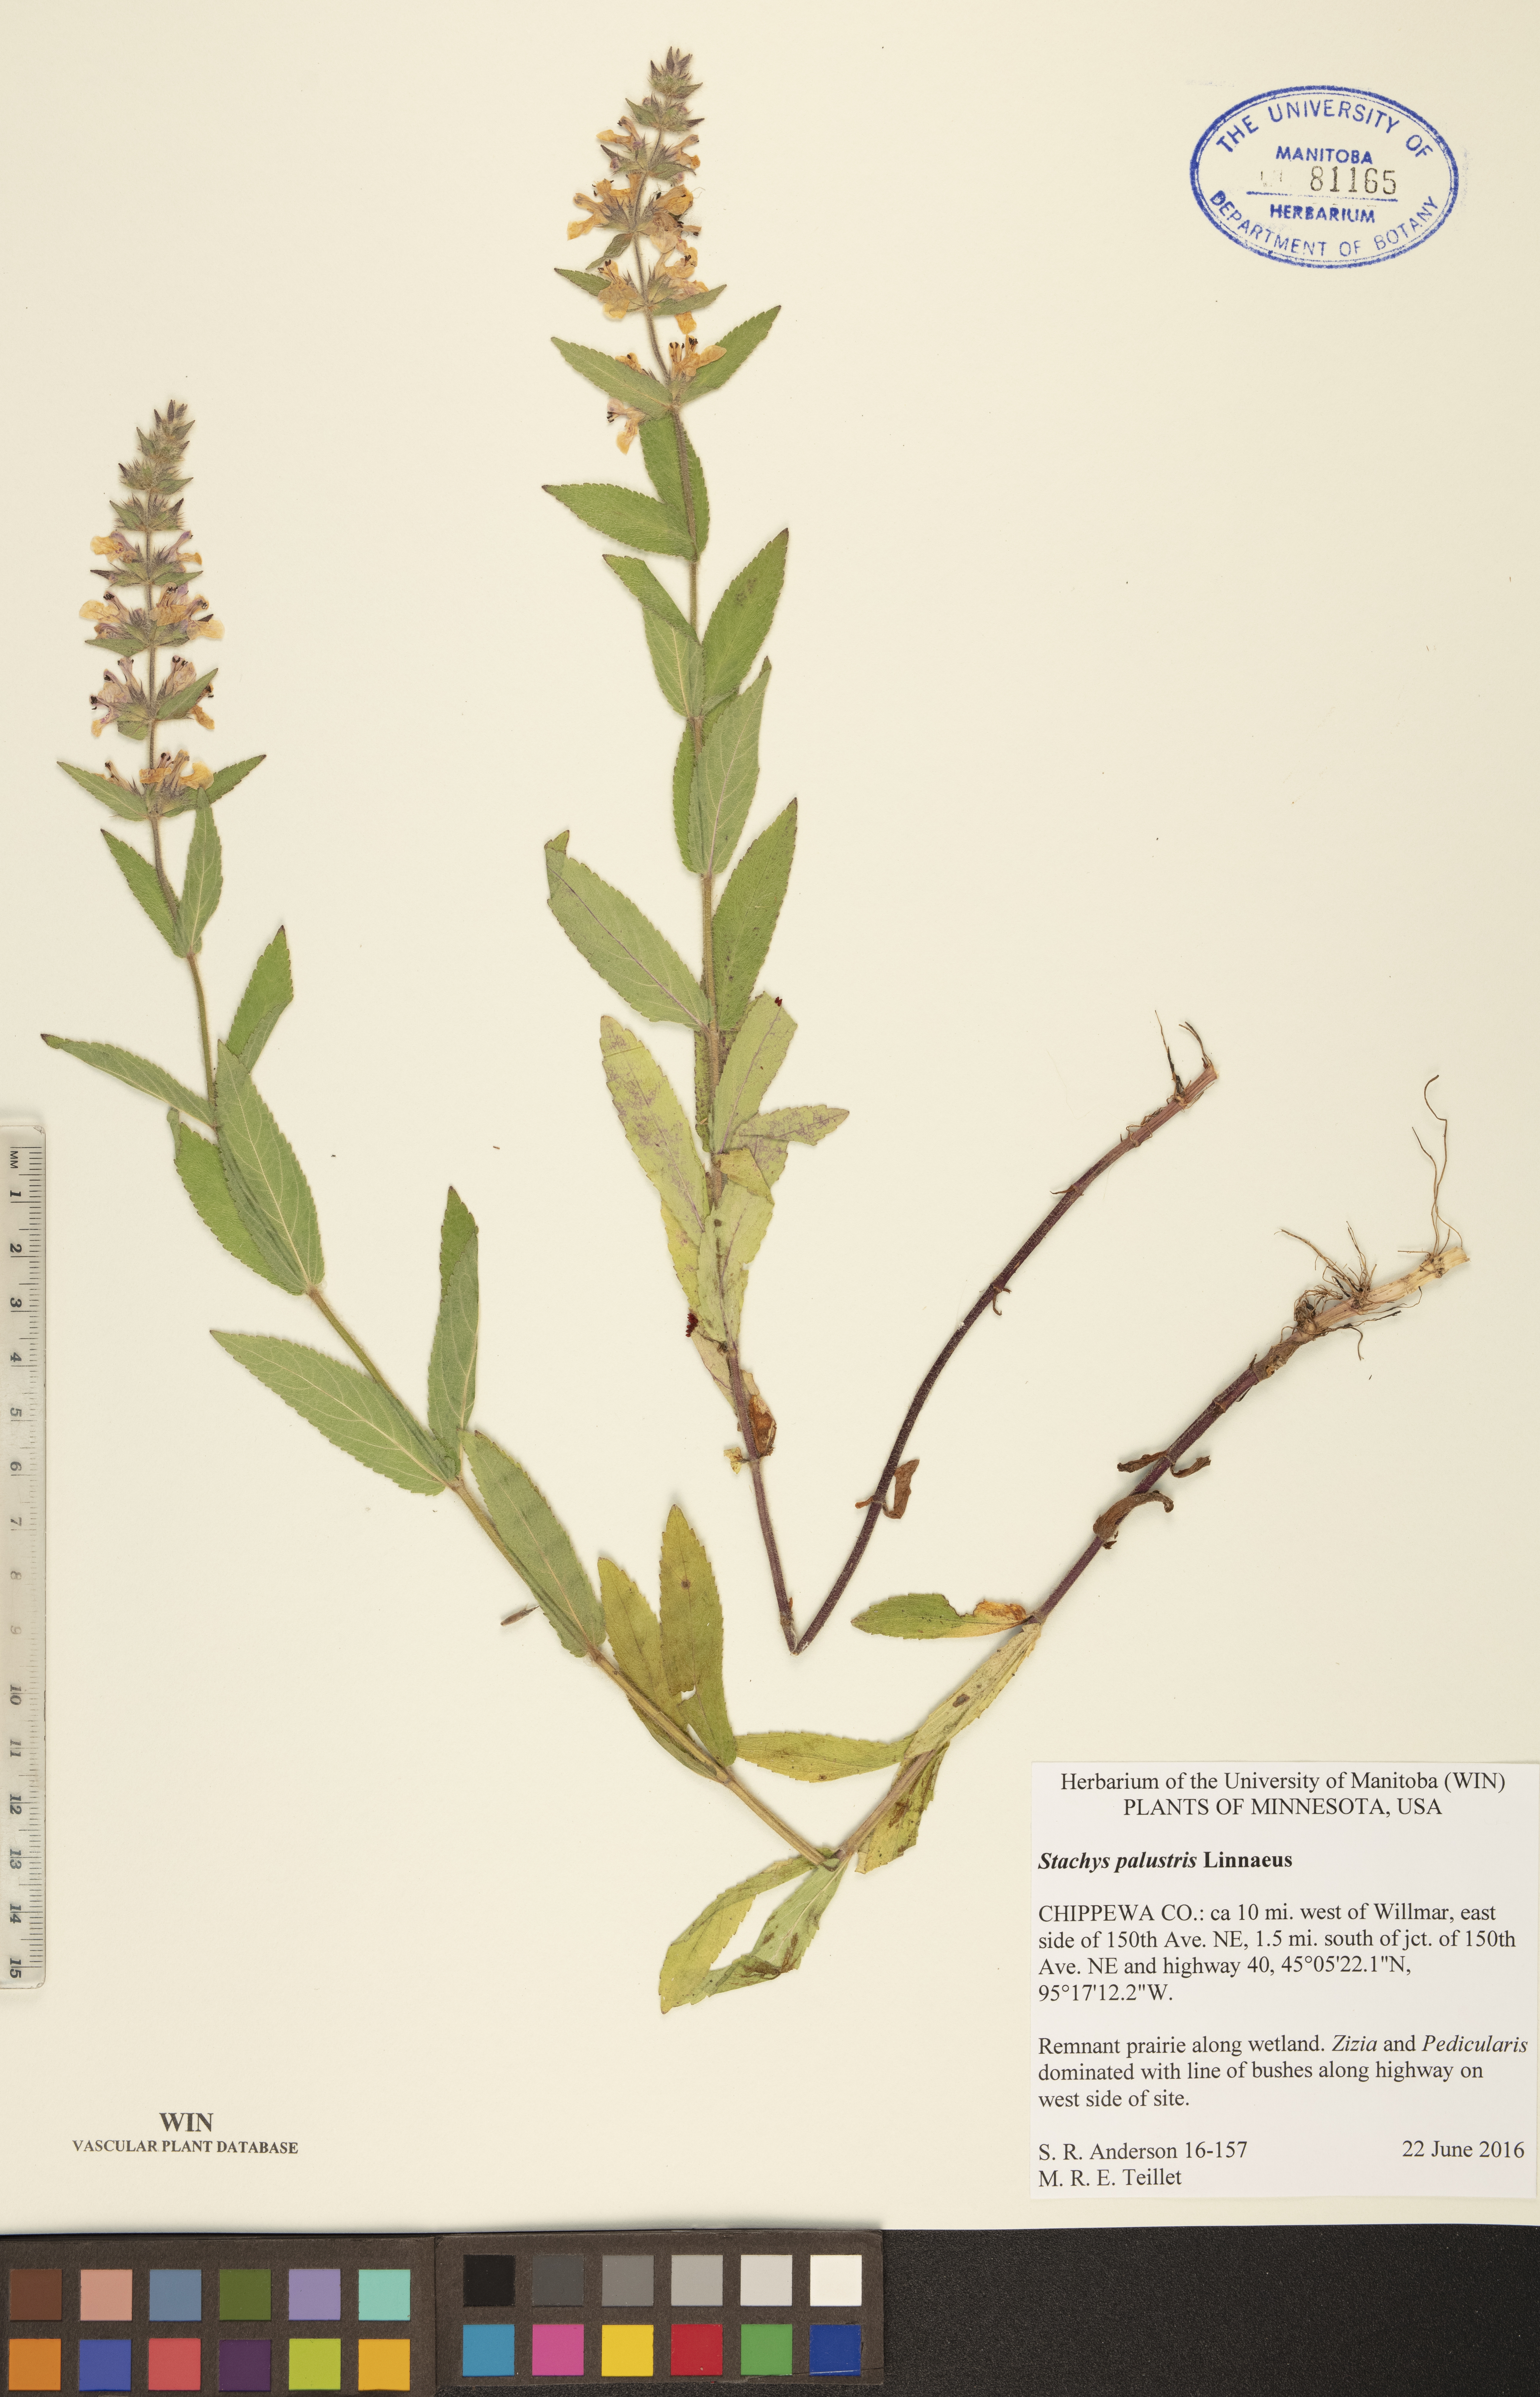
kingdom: Plantae
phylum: Tracheophyta
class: Magnoliopsida
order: Lamiales
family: Lamiaceae
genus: Stachys
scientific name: Stachys palustris
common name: Marsh woundwort
